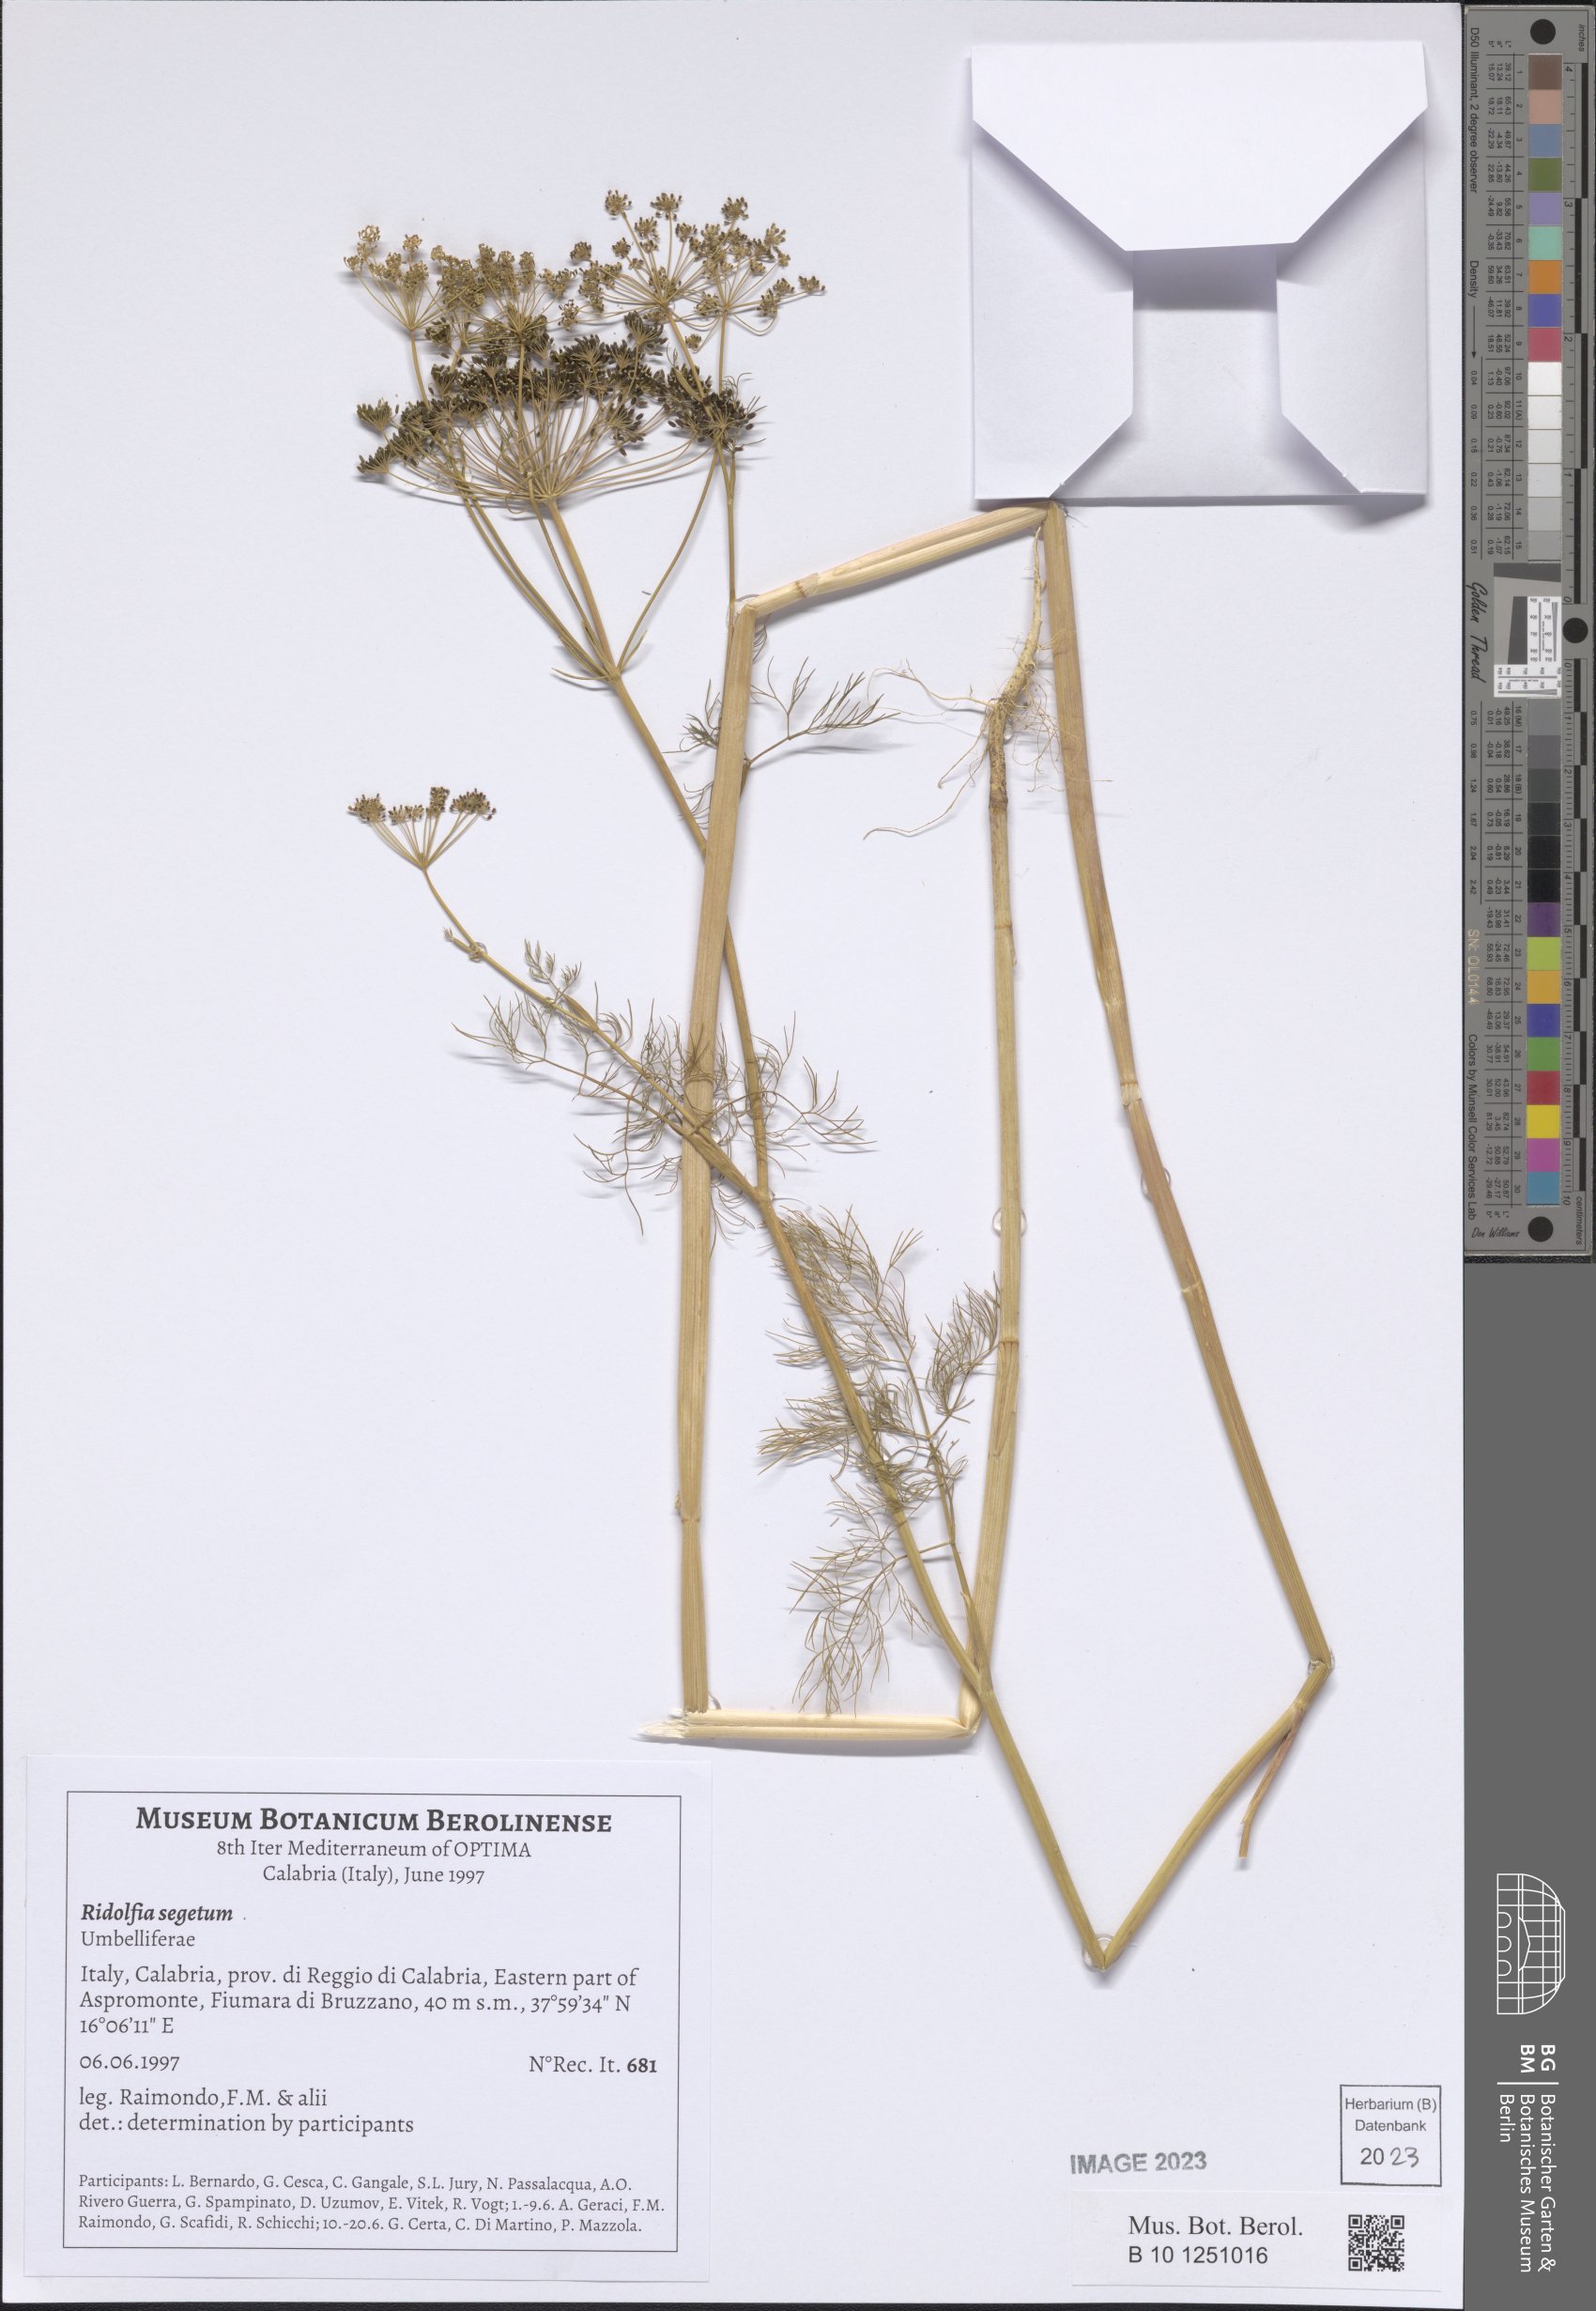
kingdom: Plantae
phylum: Tracheophyta
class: Magnoliopsida
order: Apiales
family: Apiaceae
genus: Anethum
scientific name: Anethum ridolfia
